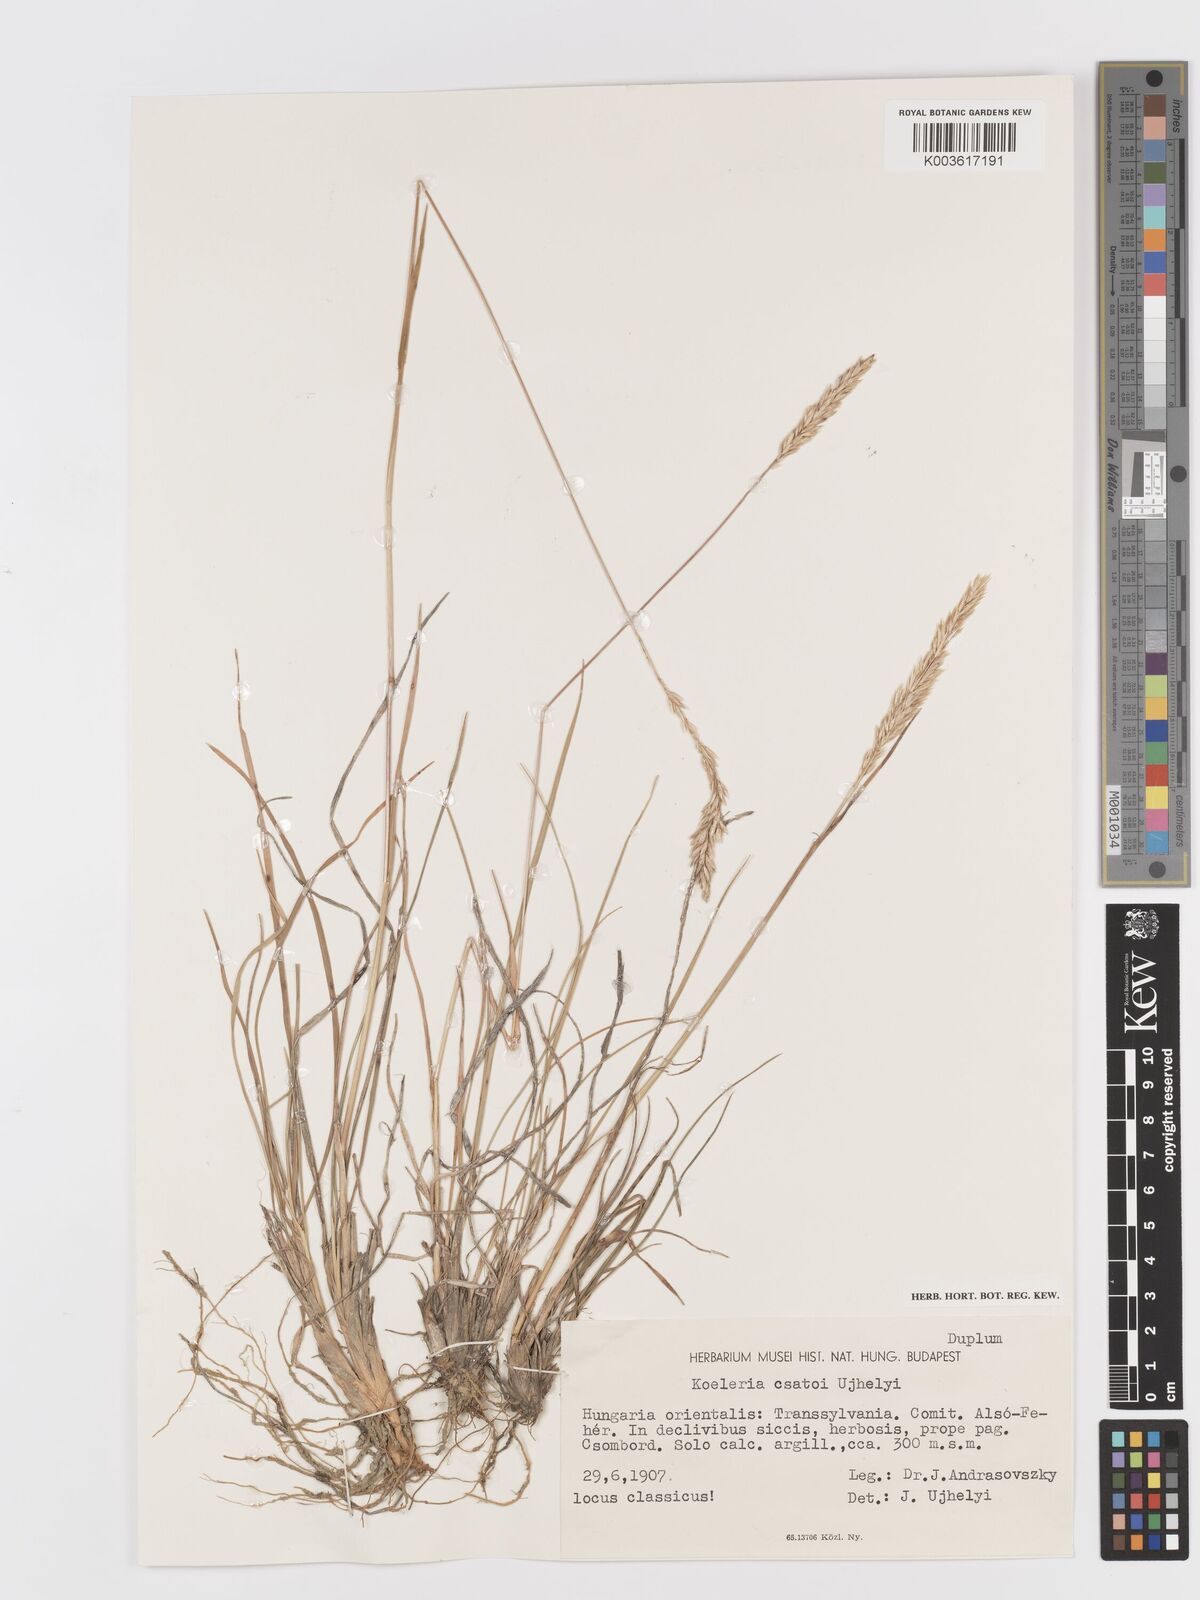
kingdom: Plantae
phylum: Tracheophyta
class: Liliopsida
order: Poales
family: Poaceae
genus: Koeleria
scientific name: Koeleria macrantha
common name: Crested hair-grass
